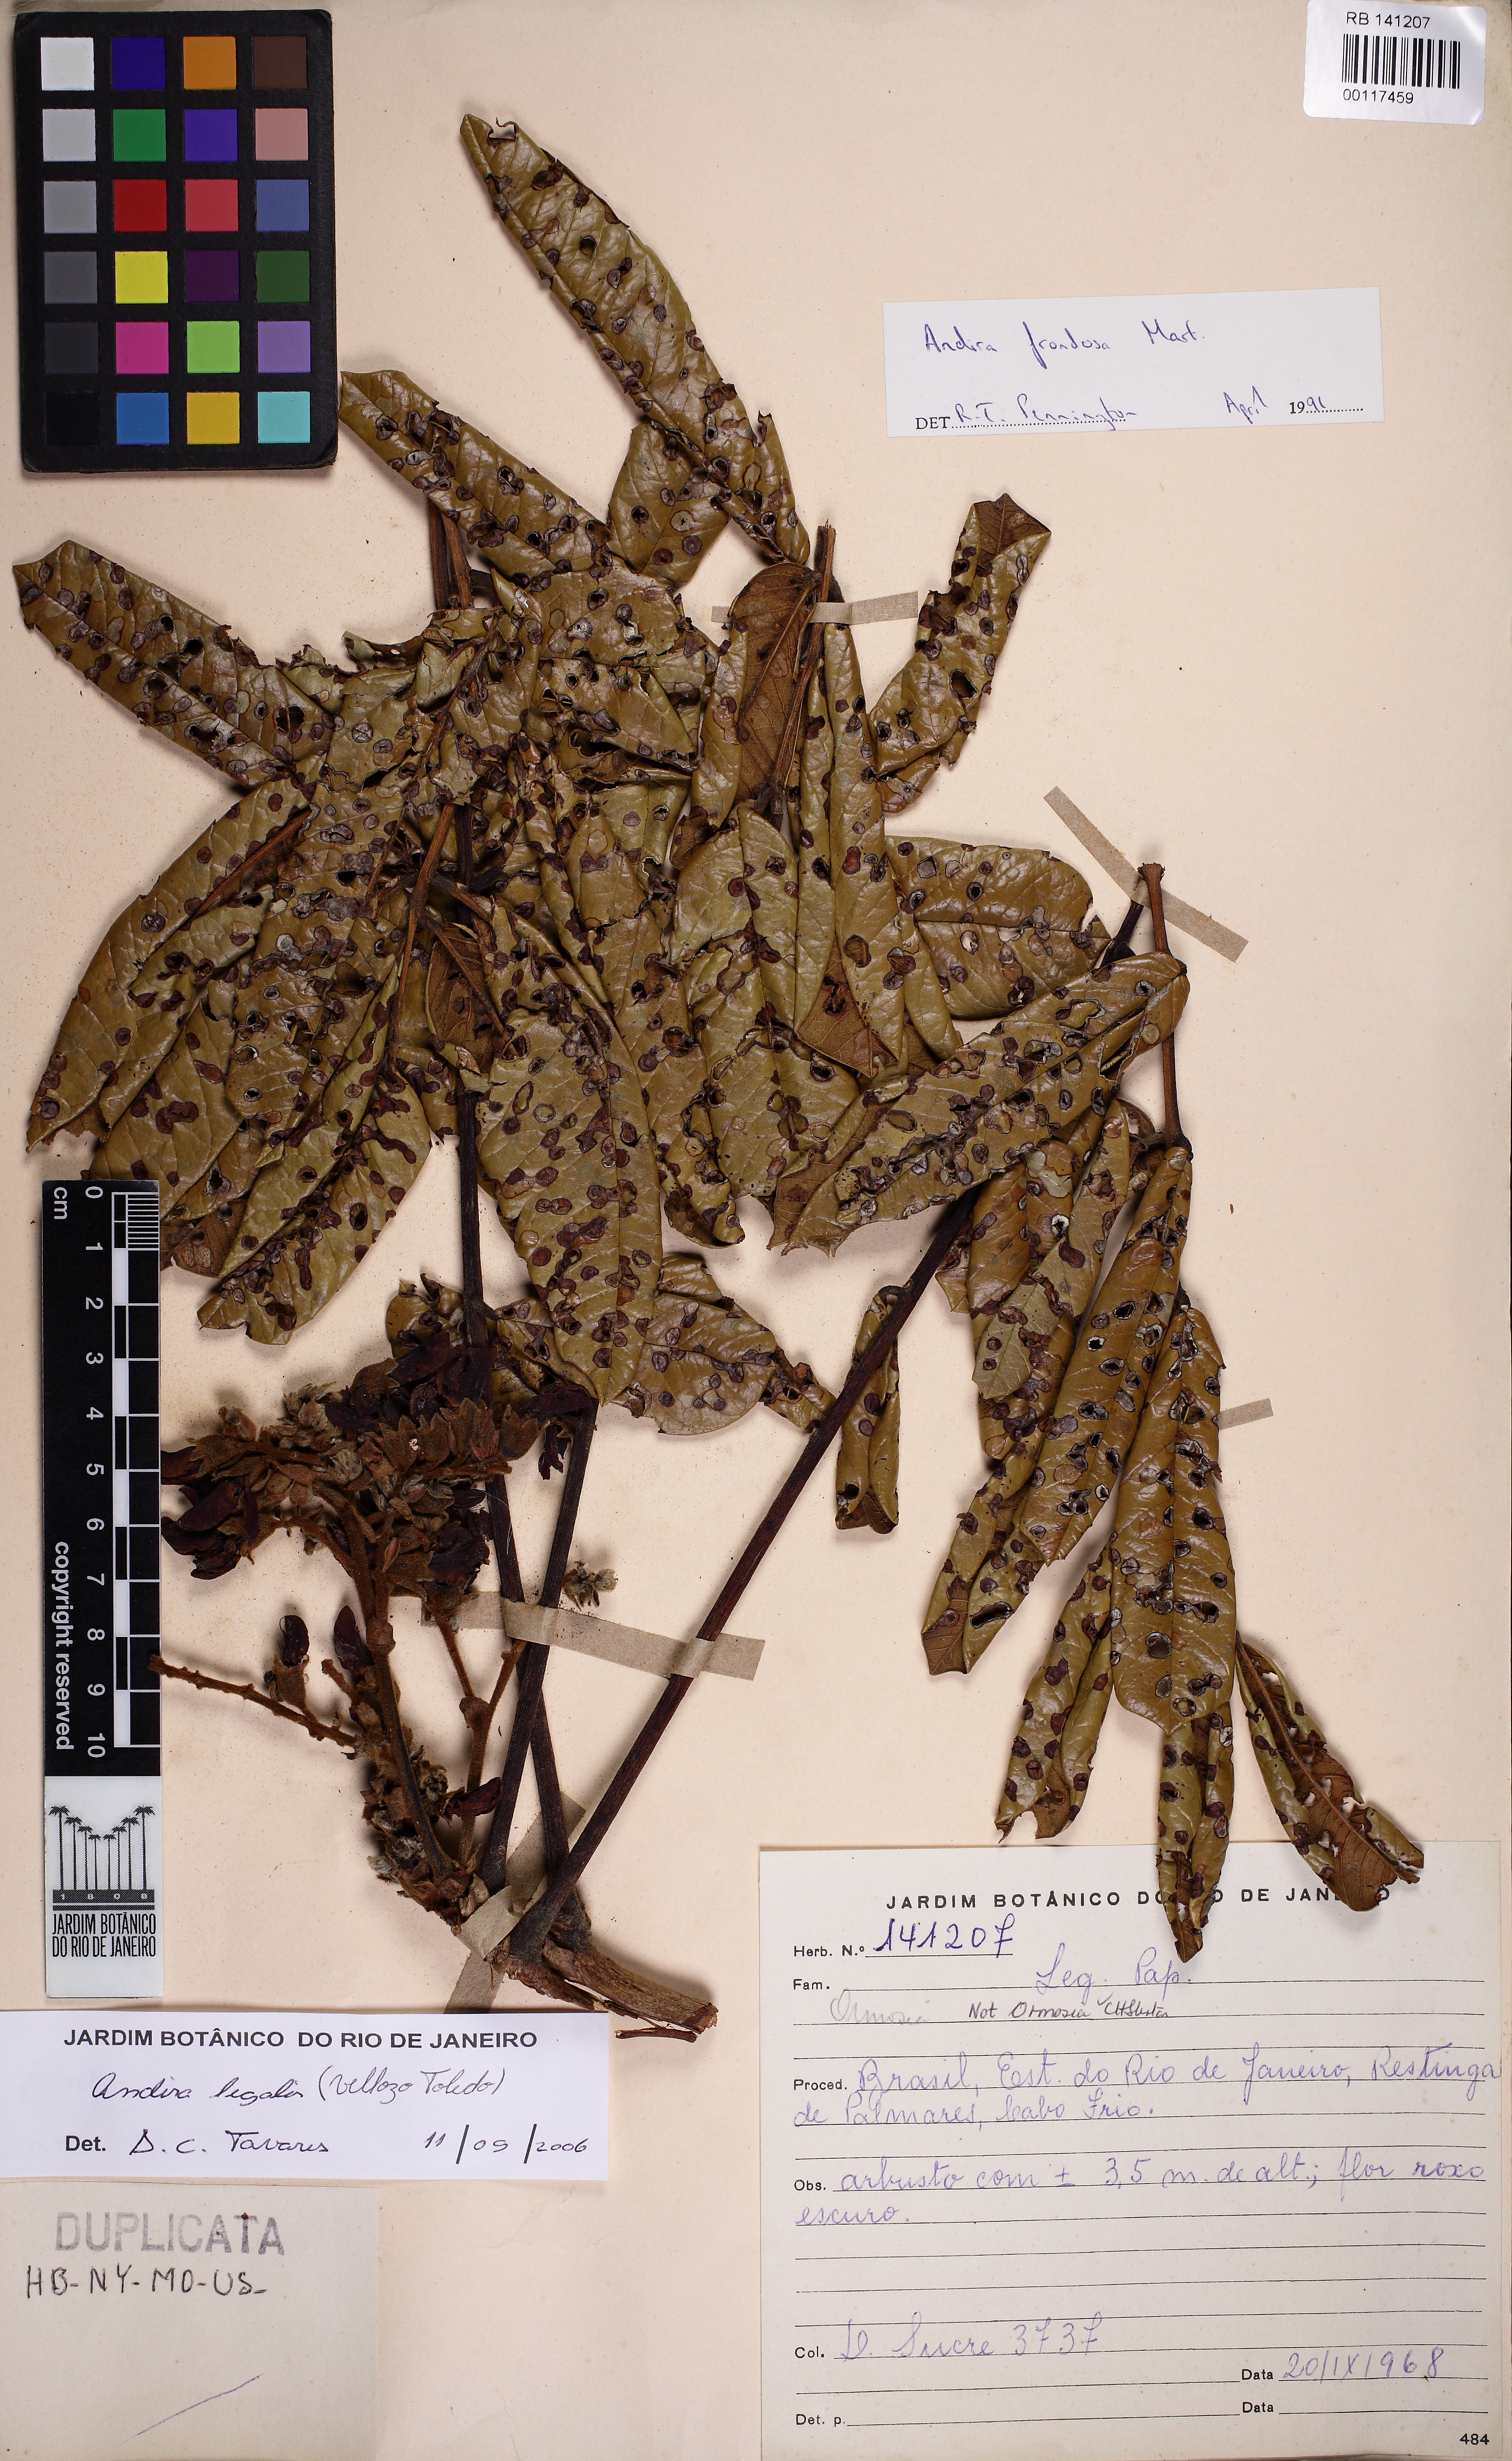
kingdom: Plantae
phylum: Tracheophyta
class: Magnoliopsida
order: Fabales
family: Fabaceae
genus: Andira
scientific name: Andira legalis
